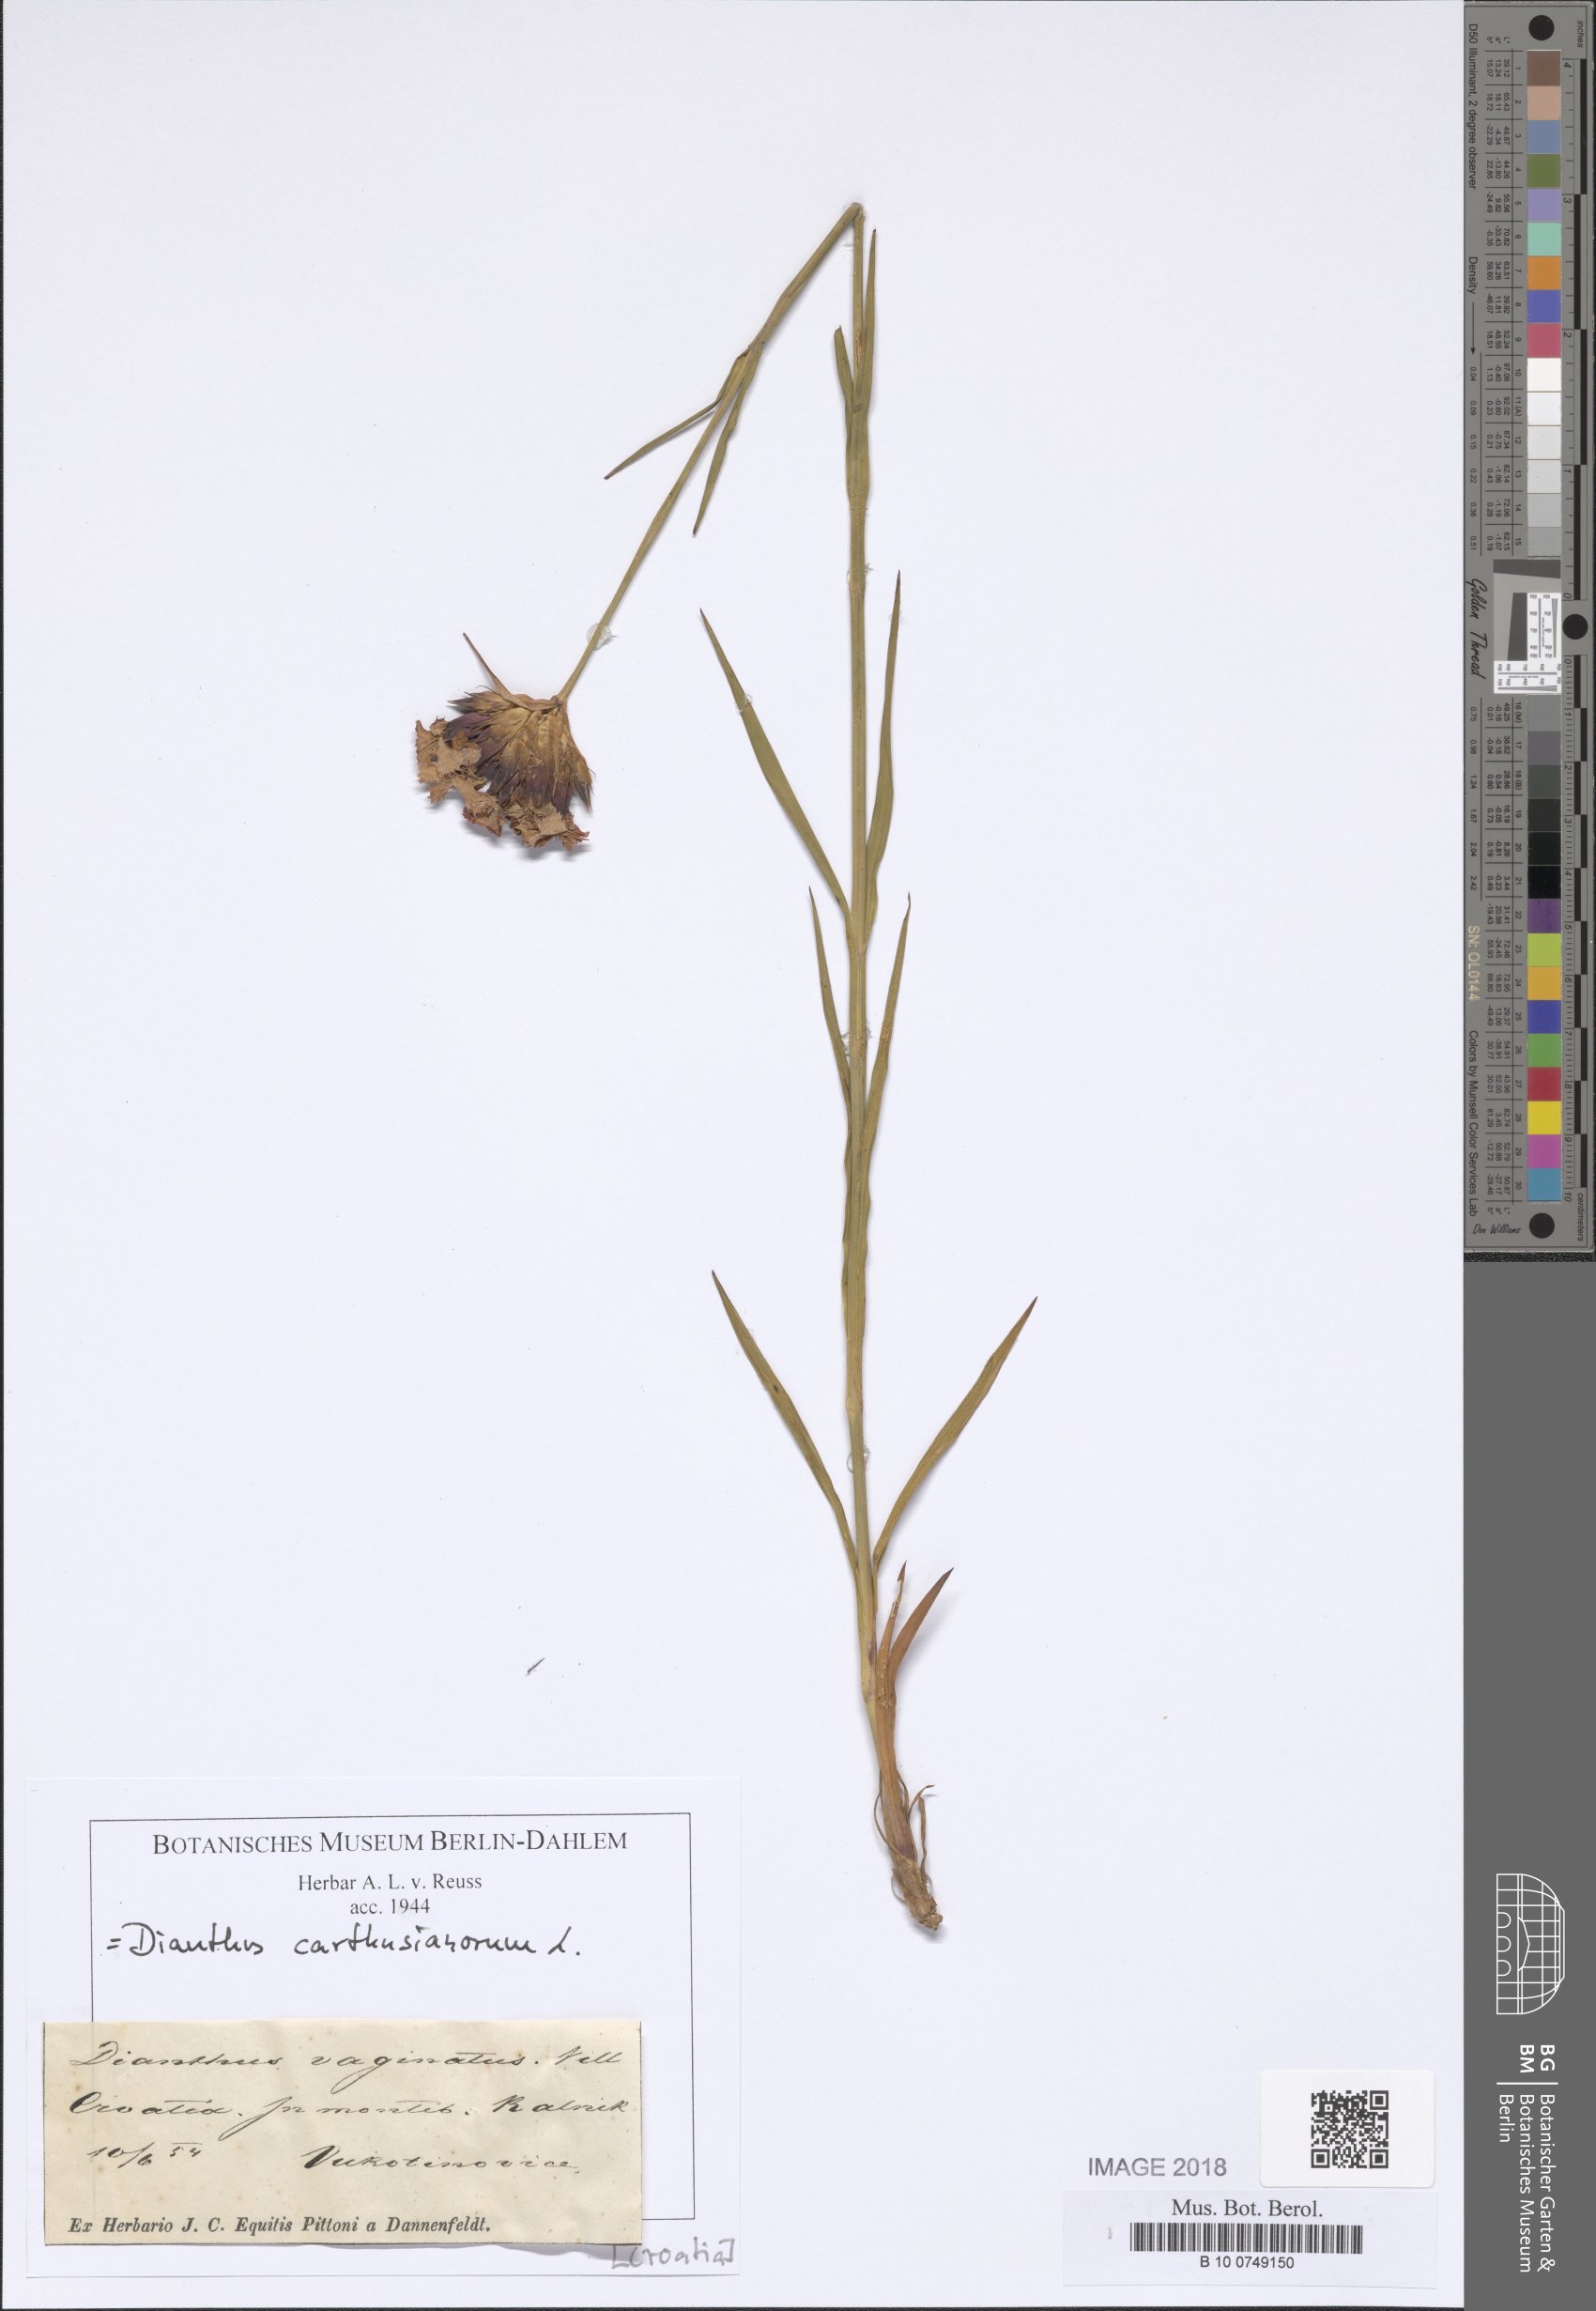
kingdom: Plantae
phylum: Tracheophyta
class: Magnoliopsida
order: Caryophyllales
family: Caryophyllaceae
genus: Dianthus
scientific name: Dianthus carthusianorum
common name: Carthusian pink
